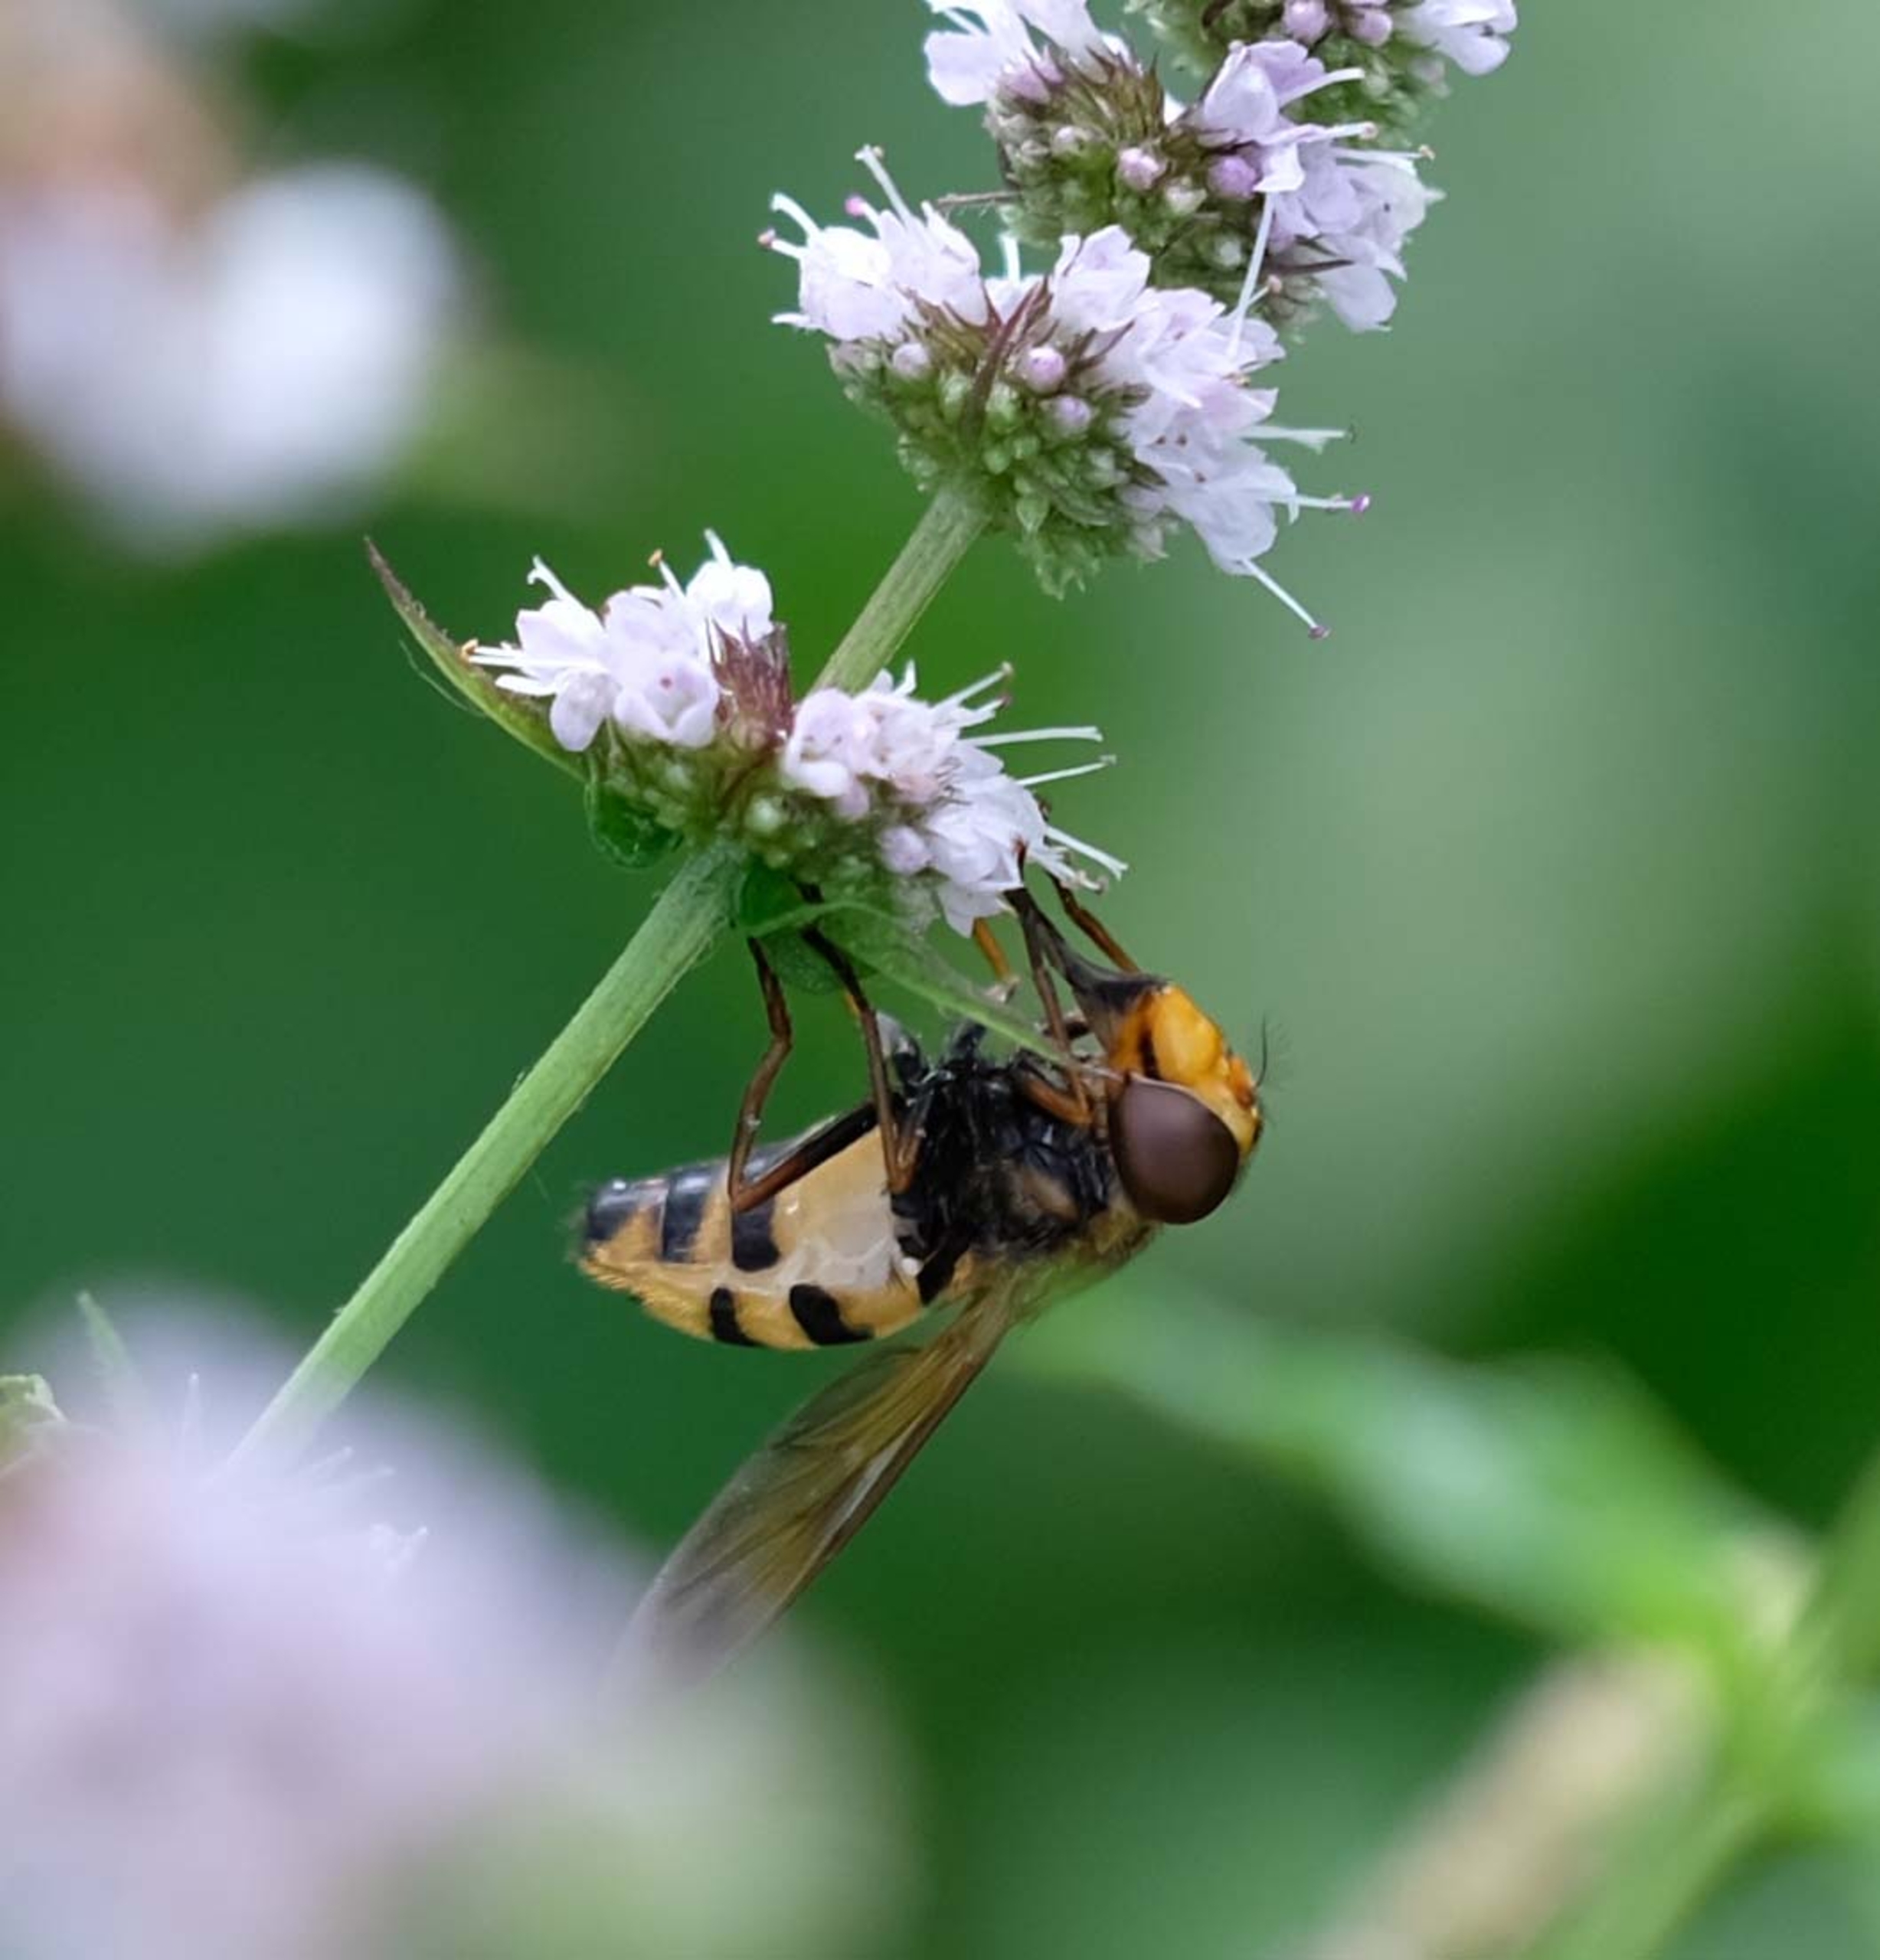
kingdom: Animalia
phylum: Arthropoda
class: Insecta
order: Diptera
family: Syrphidae
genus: Volucella
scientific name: Volucella inanis
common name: Gul humlesvirreflue
